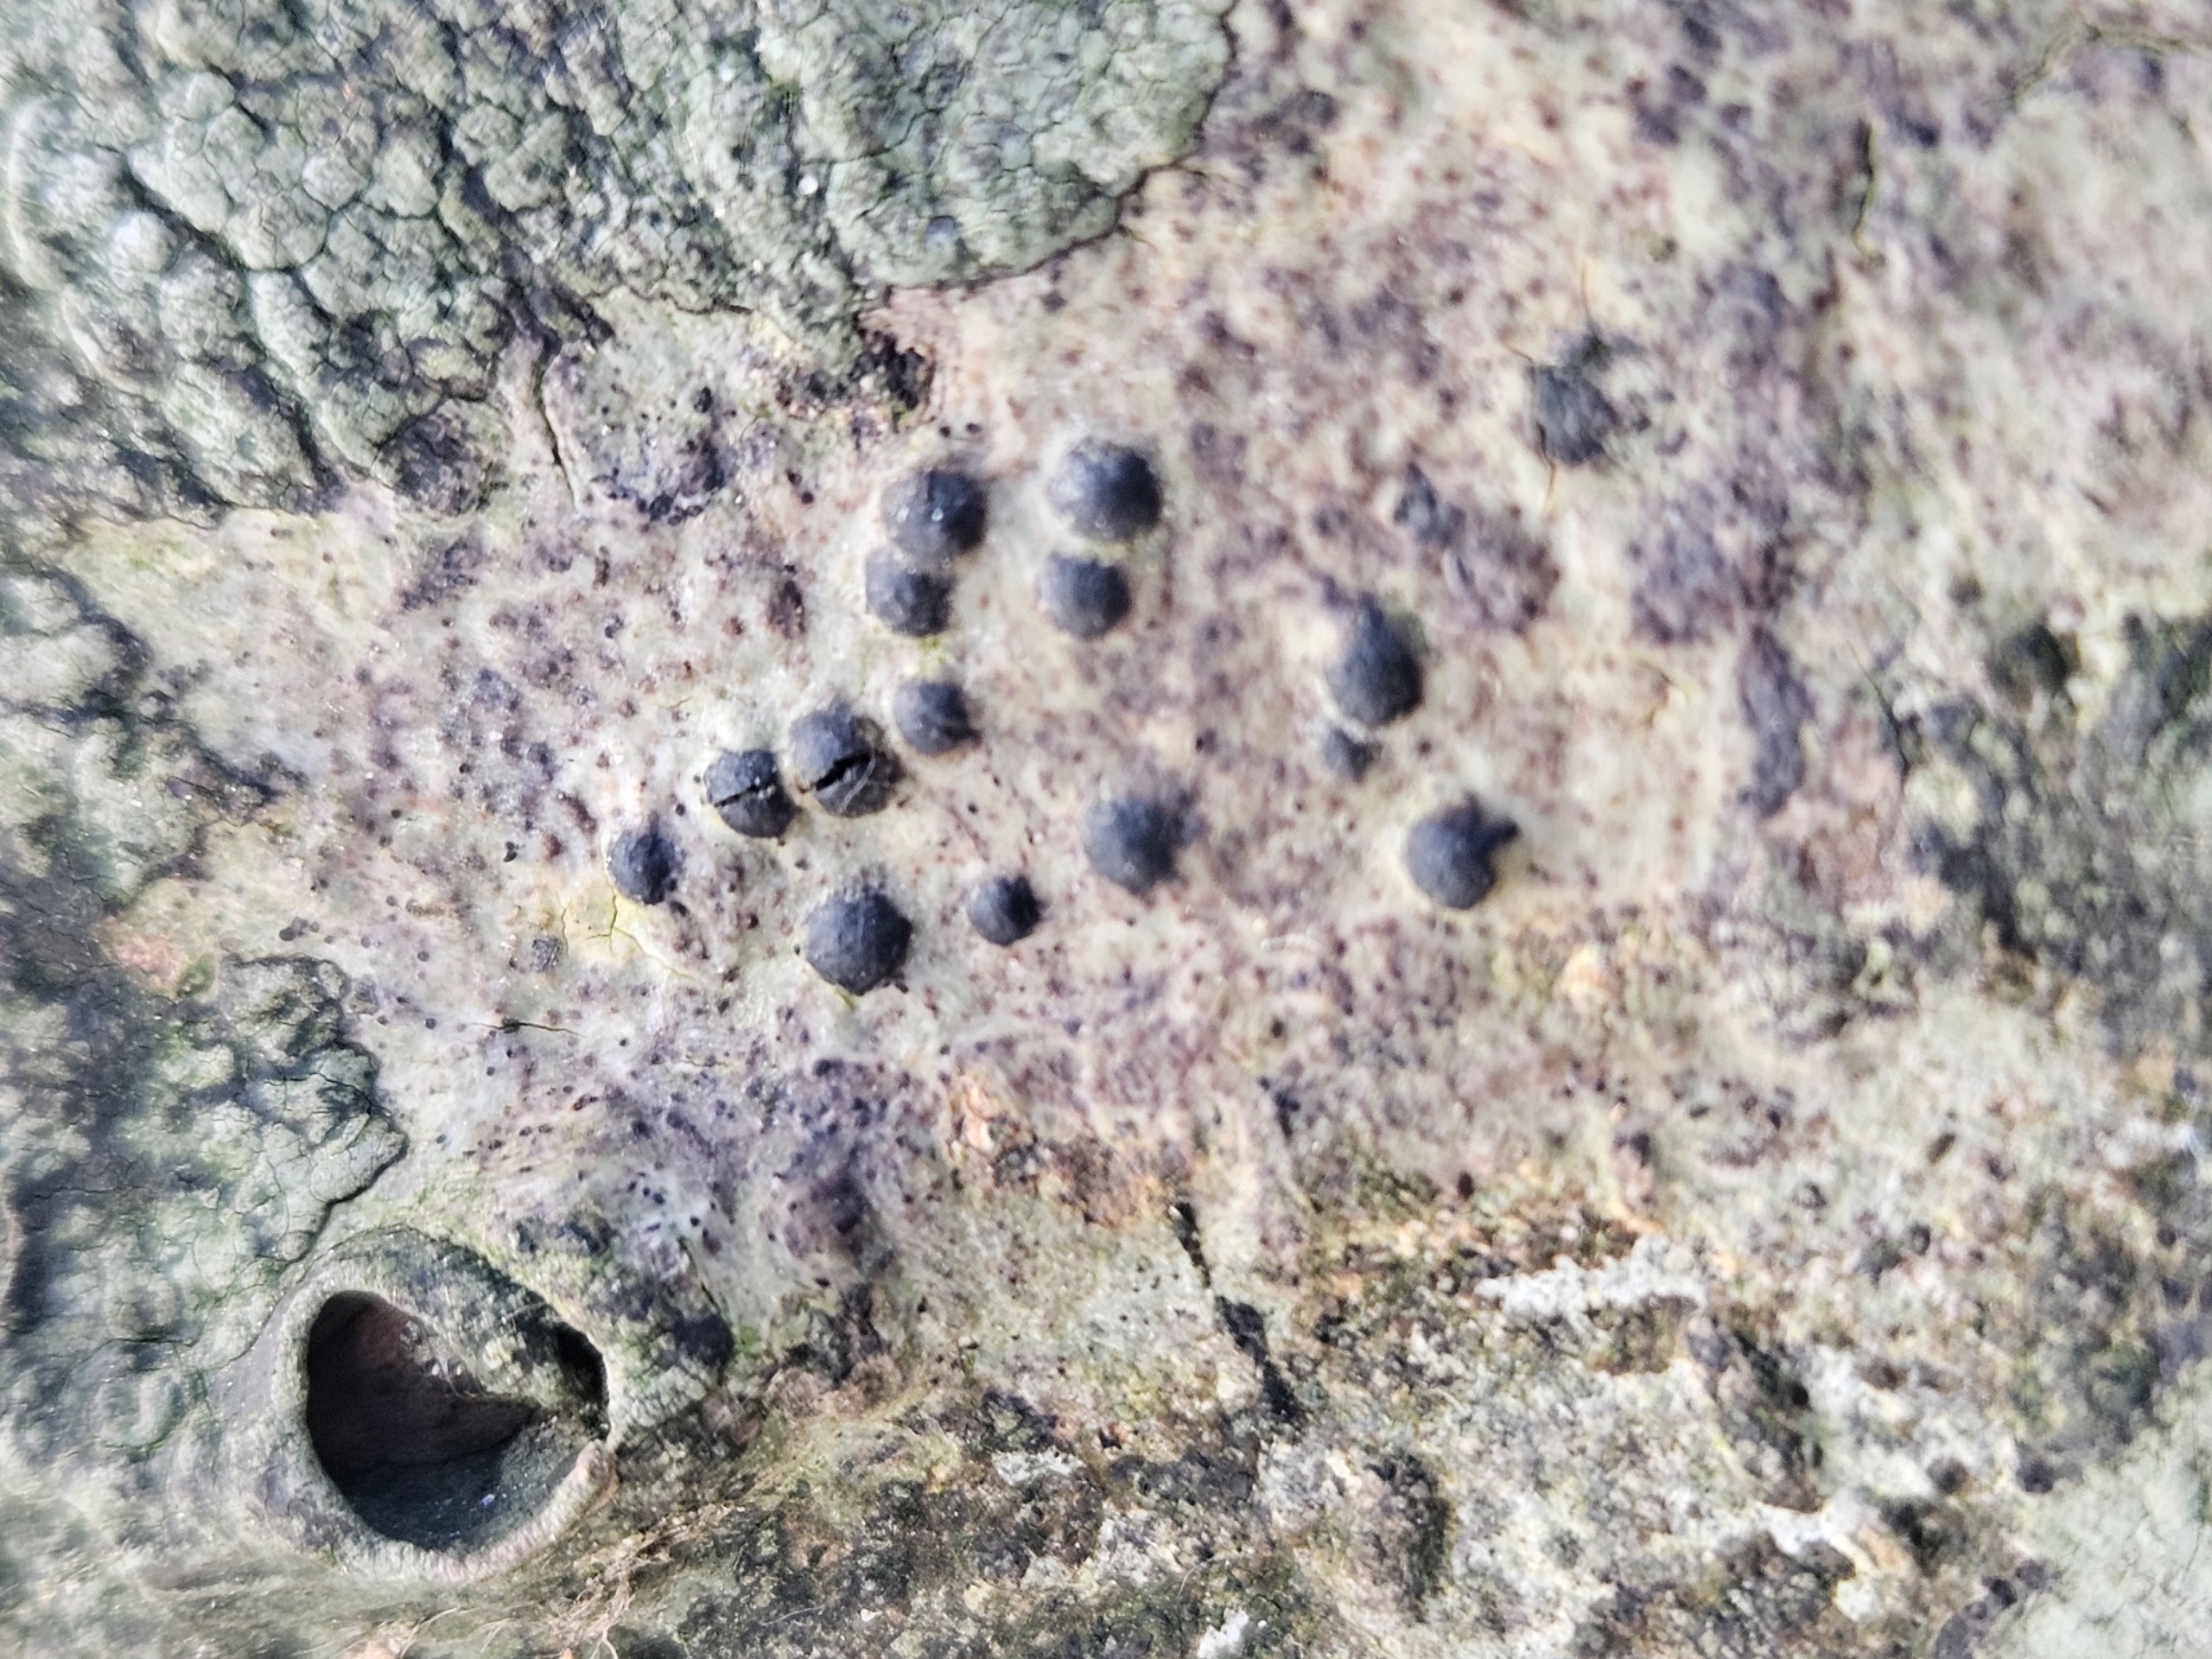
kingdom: Fungi
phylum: Ascomycota
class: Eurotiomycetes
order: Pyrenulales
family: Pyrenulaceae
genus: Pyrenula
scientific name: Pyrenula nitida
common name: Glinsende kernelav
